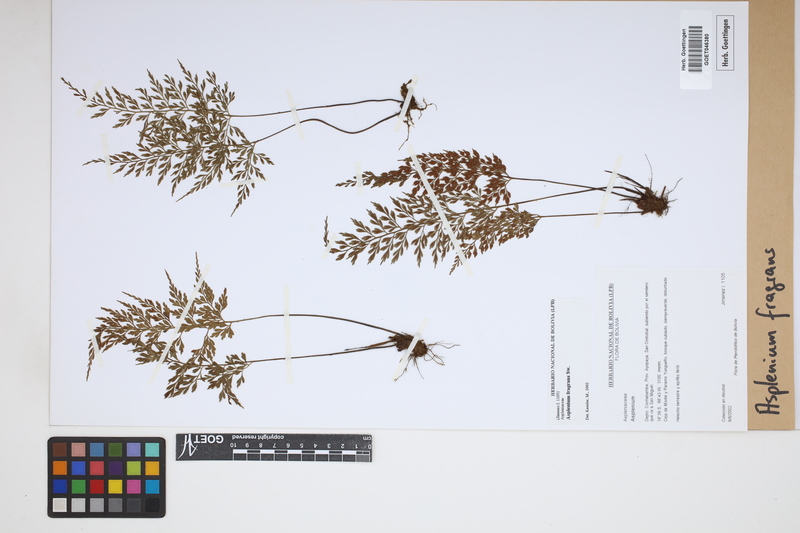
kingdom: Plantae
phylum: Tracheophyta
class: Polypodiopsida
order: Polypodiales
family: Aspleniaceae
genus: Asplenium
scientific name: Asplenium fragrans
